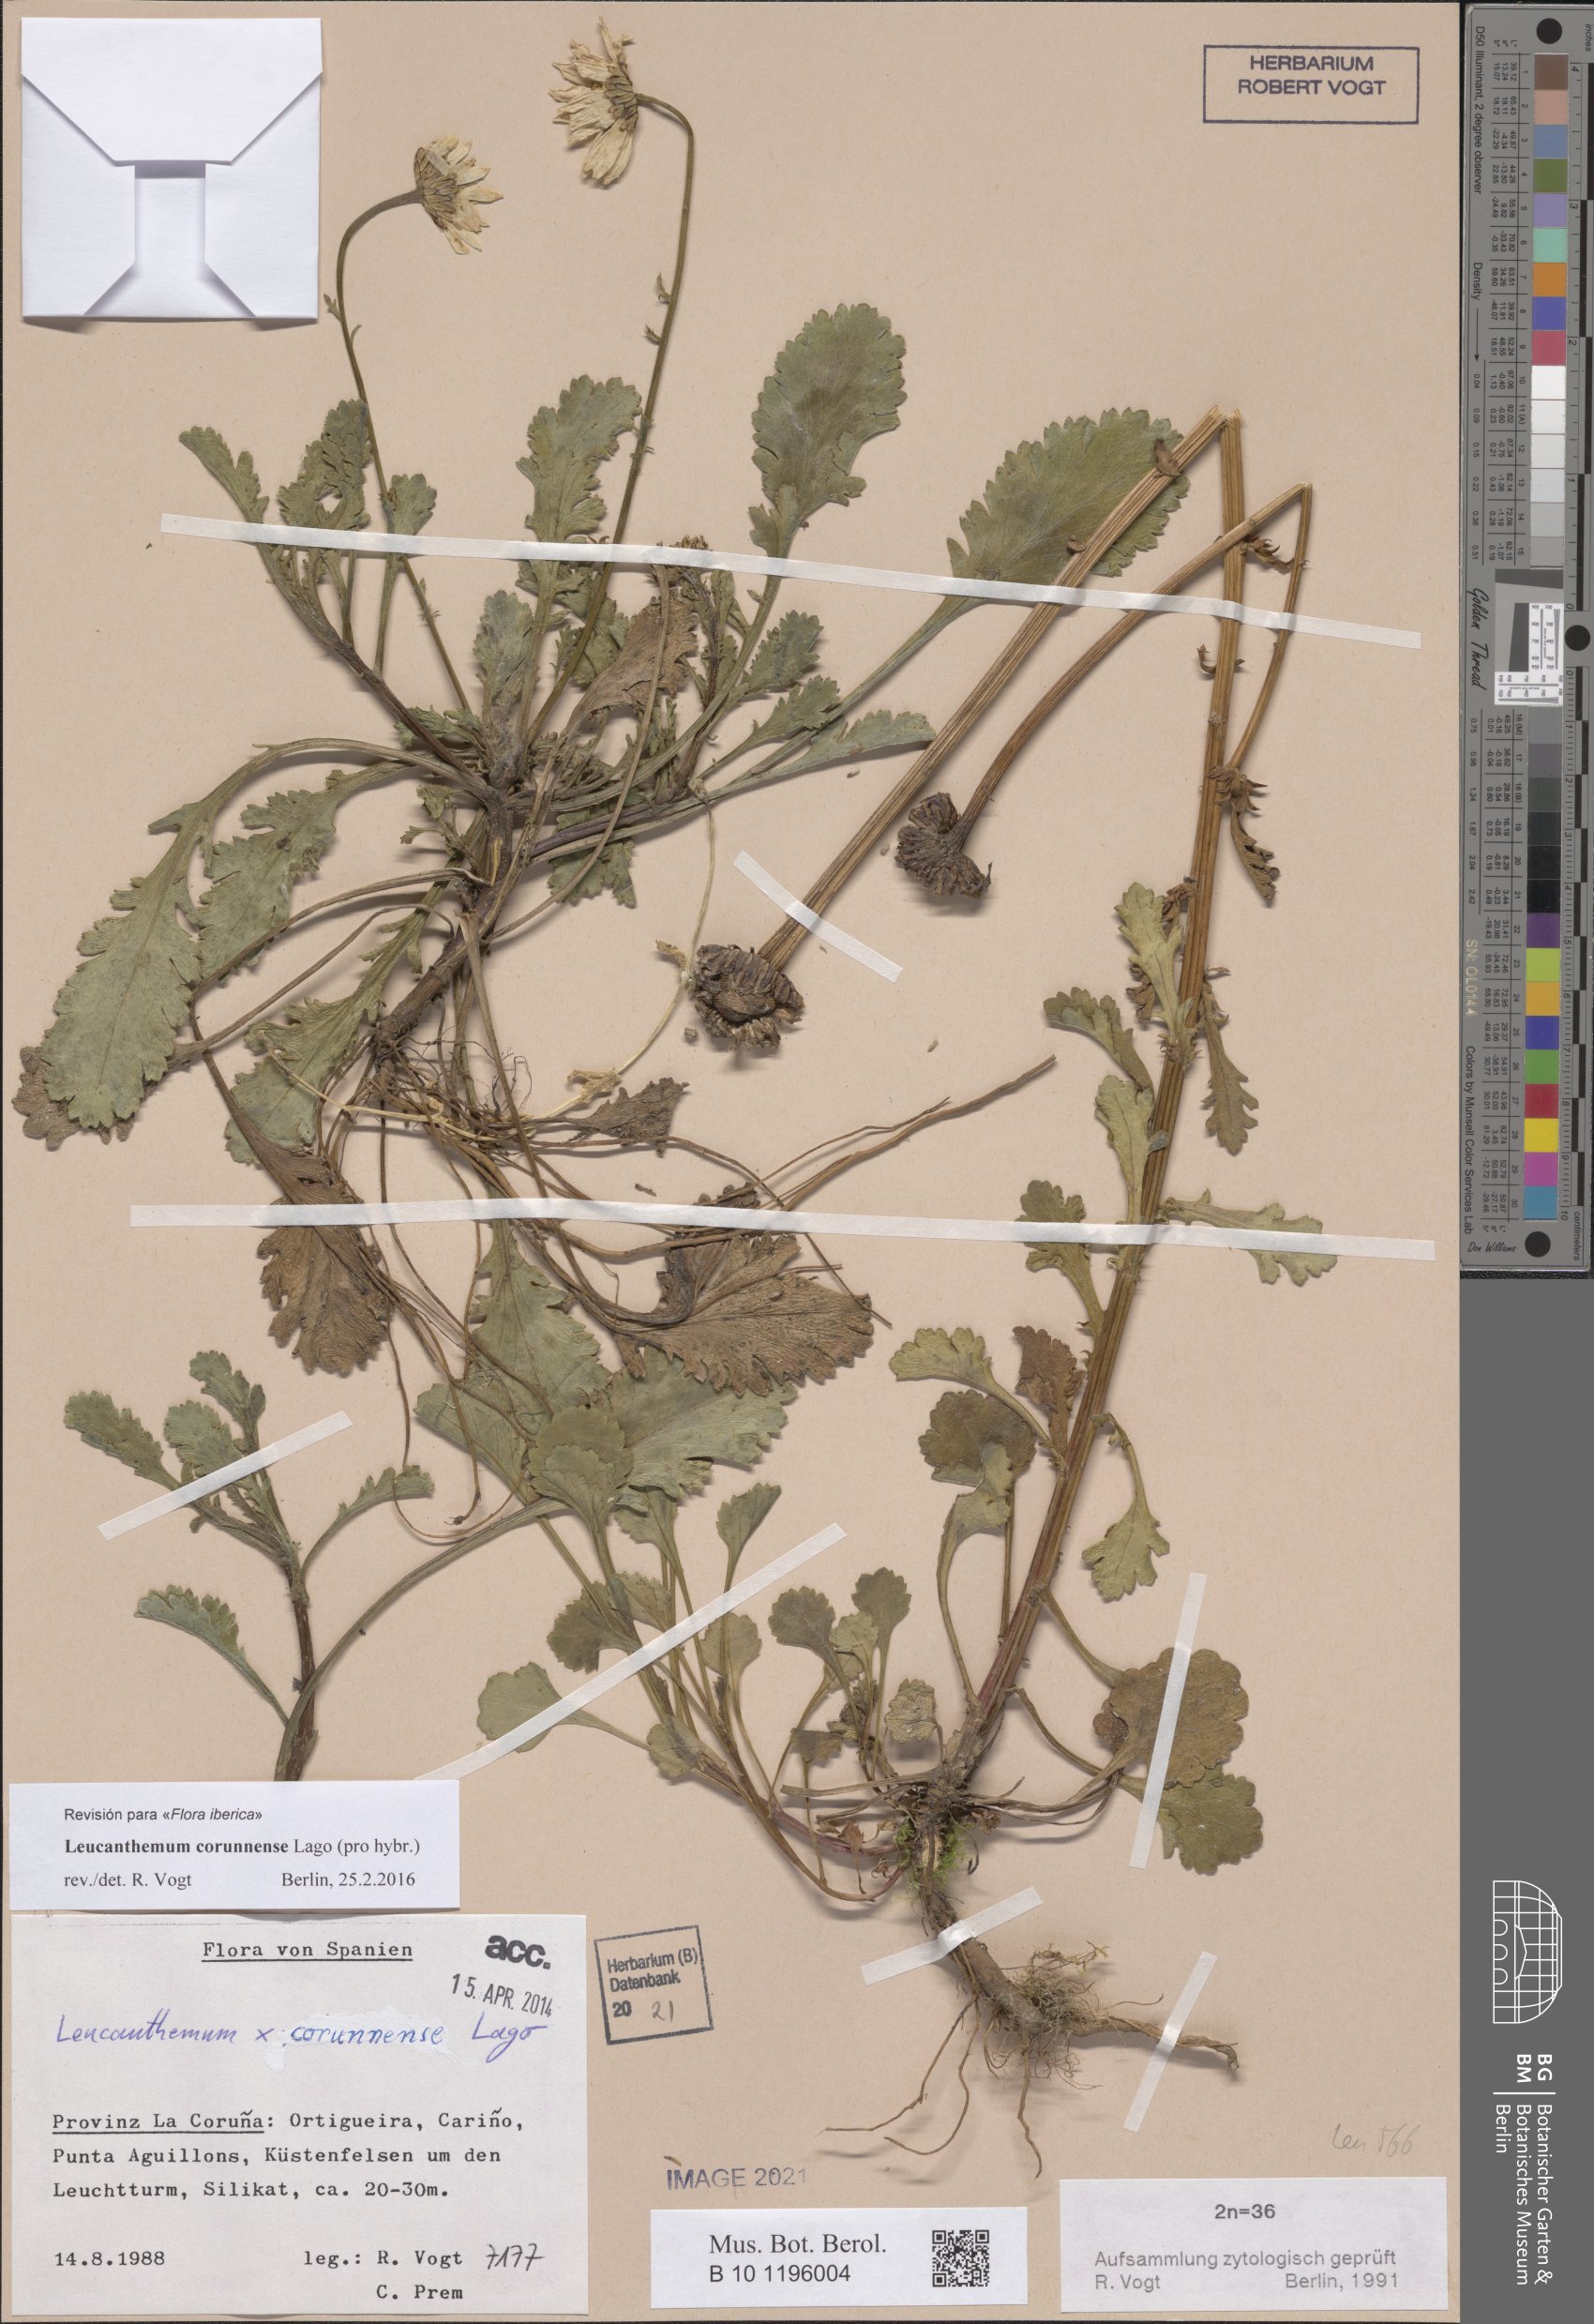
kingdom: Plantae
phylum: Tracheophyta
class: Magnoliopsida
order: Asterales
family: Asteraceae
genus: Leucanthemum
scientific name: Leucanthemum corunnense
